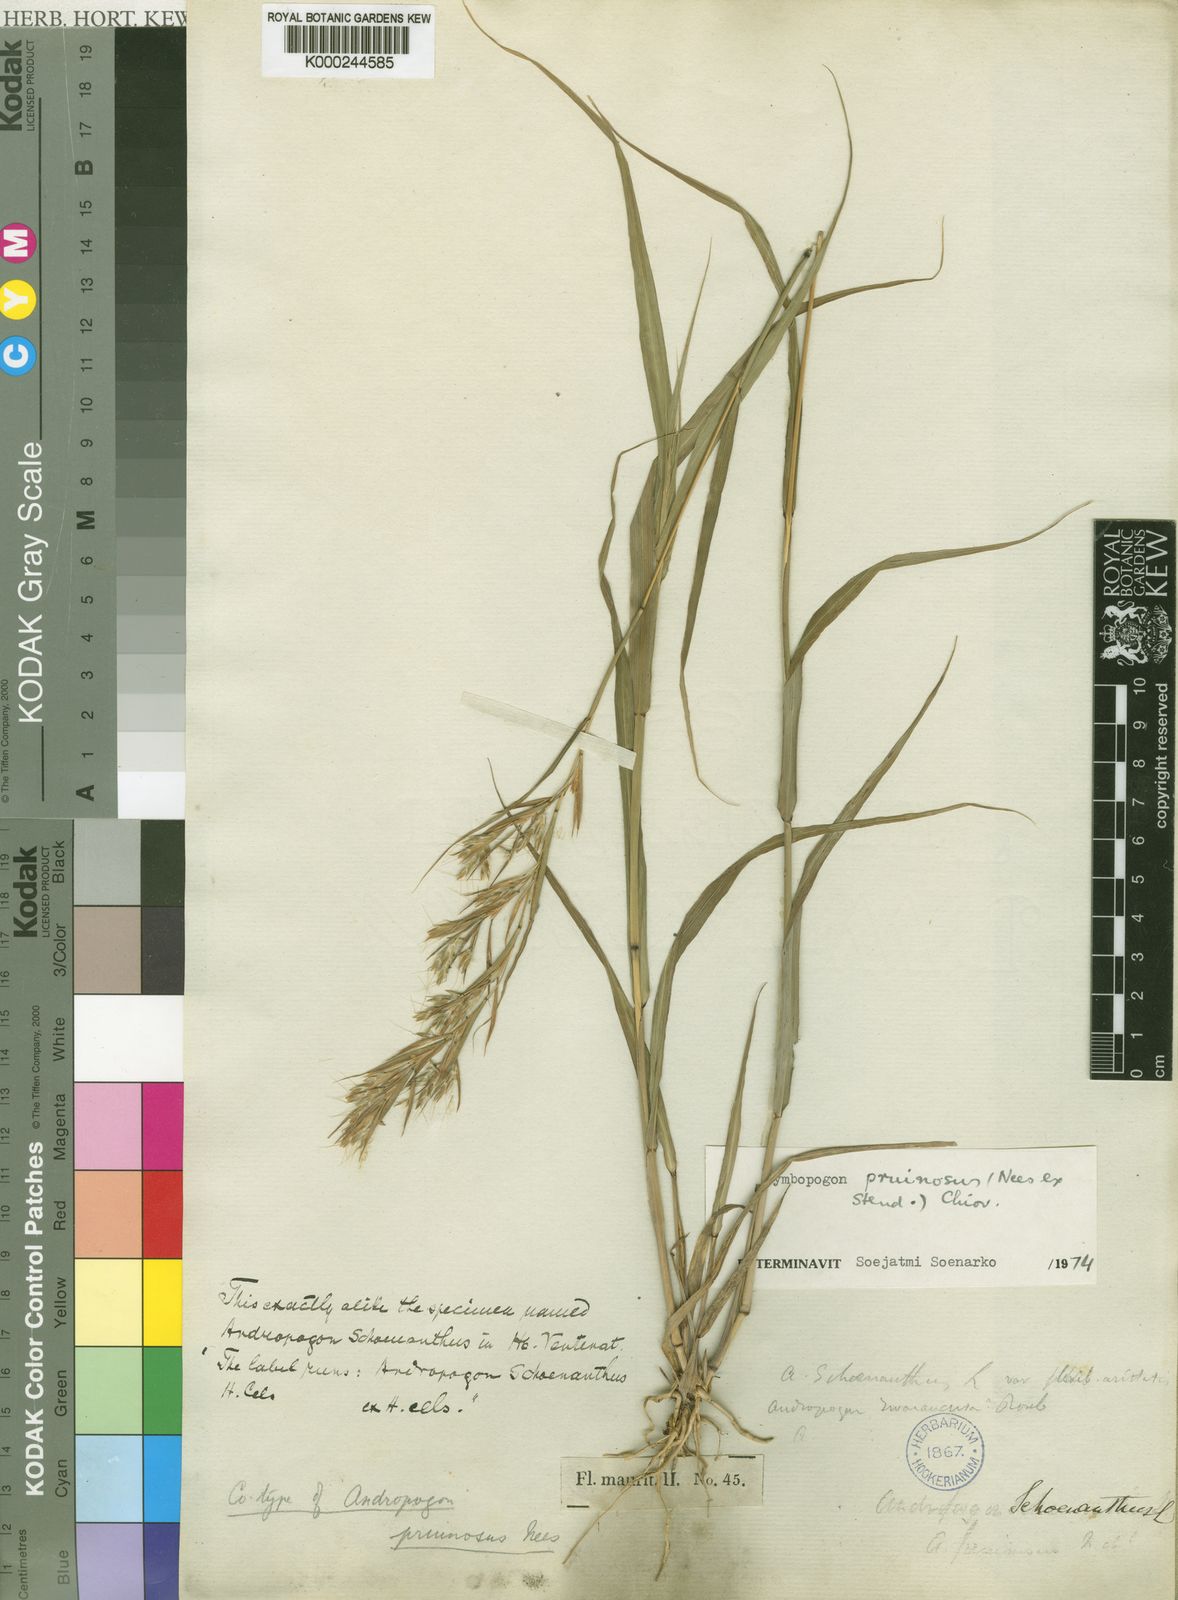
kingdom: Plantae
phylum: Tracheophyta
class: Liliopsida
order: Poales
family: Poaceae
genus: Cymbopogon
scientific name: Cymbopogon pruinosus
